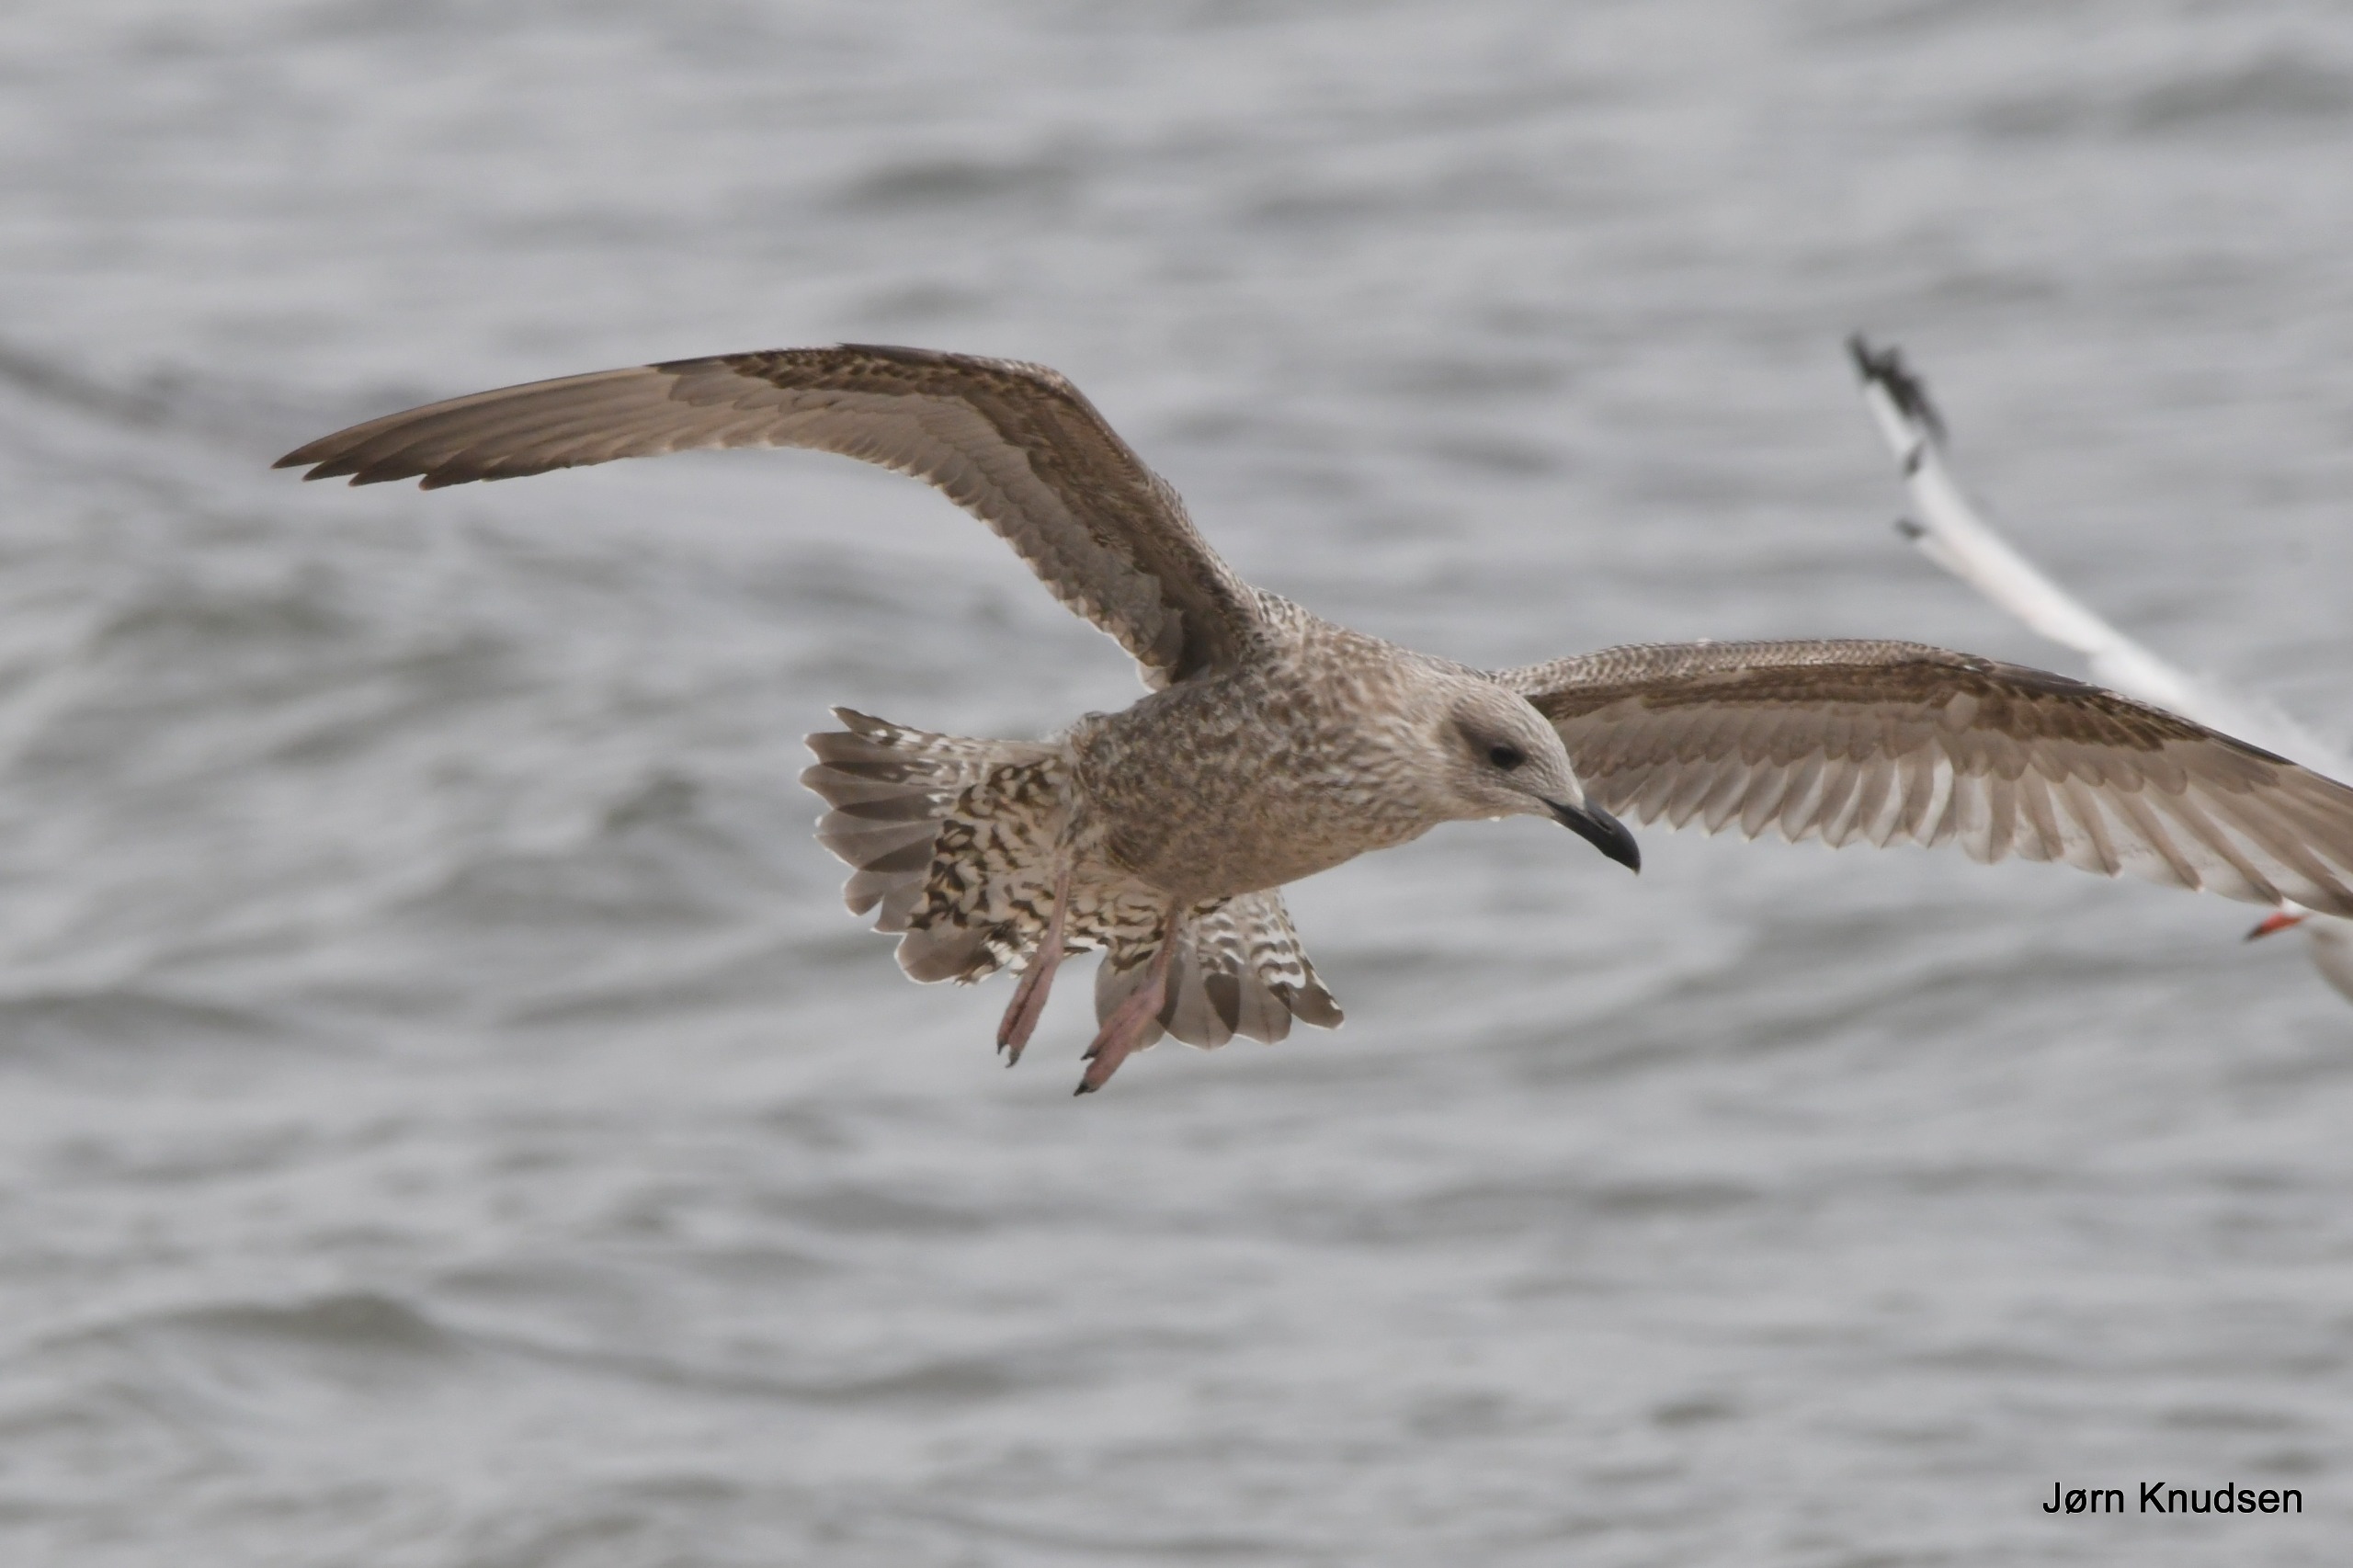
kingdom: Animalia
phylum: Chordata
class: Aves
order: Charadriiformes
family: Laridae
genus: Larus
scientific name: Larus argentatus
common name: Sølvmåge
